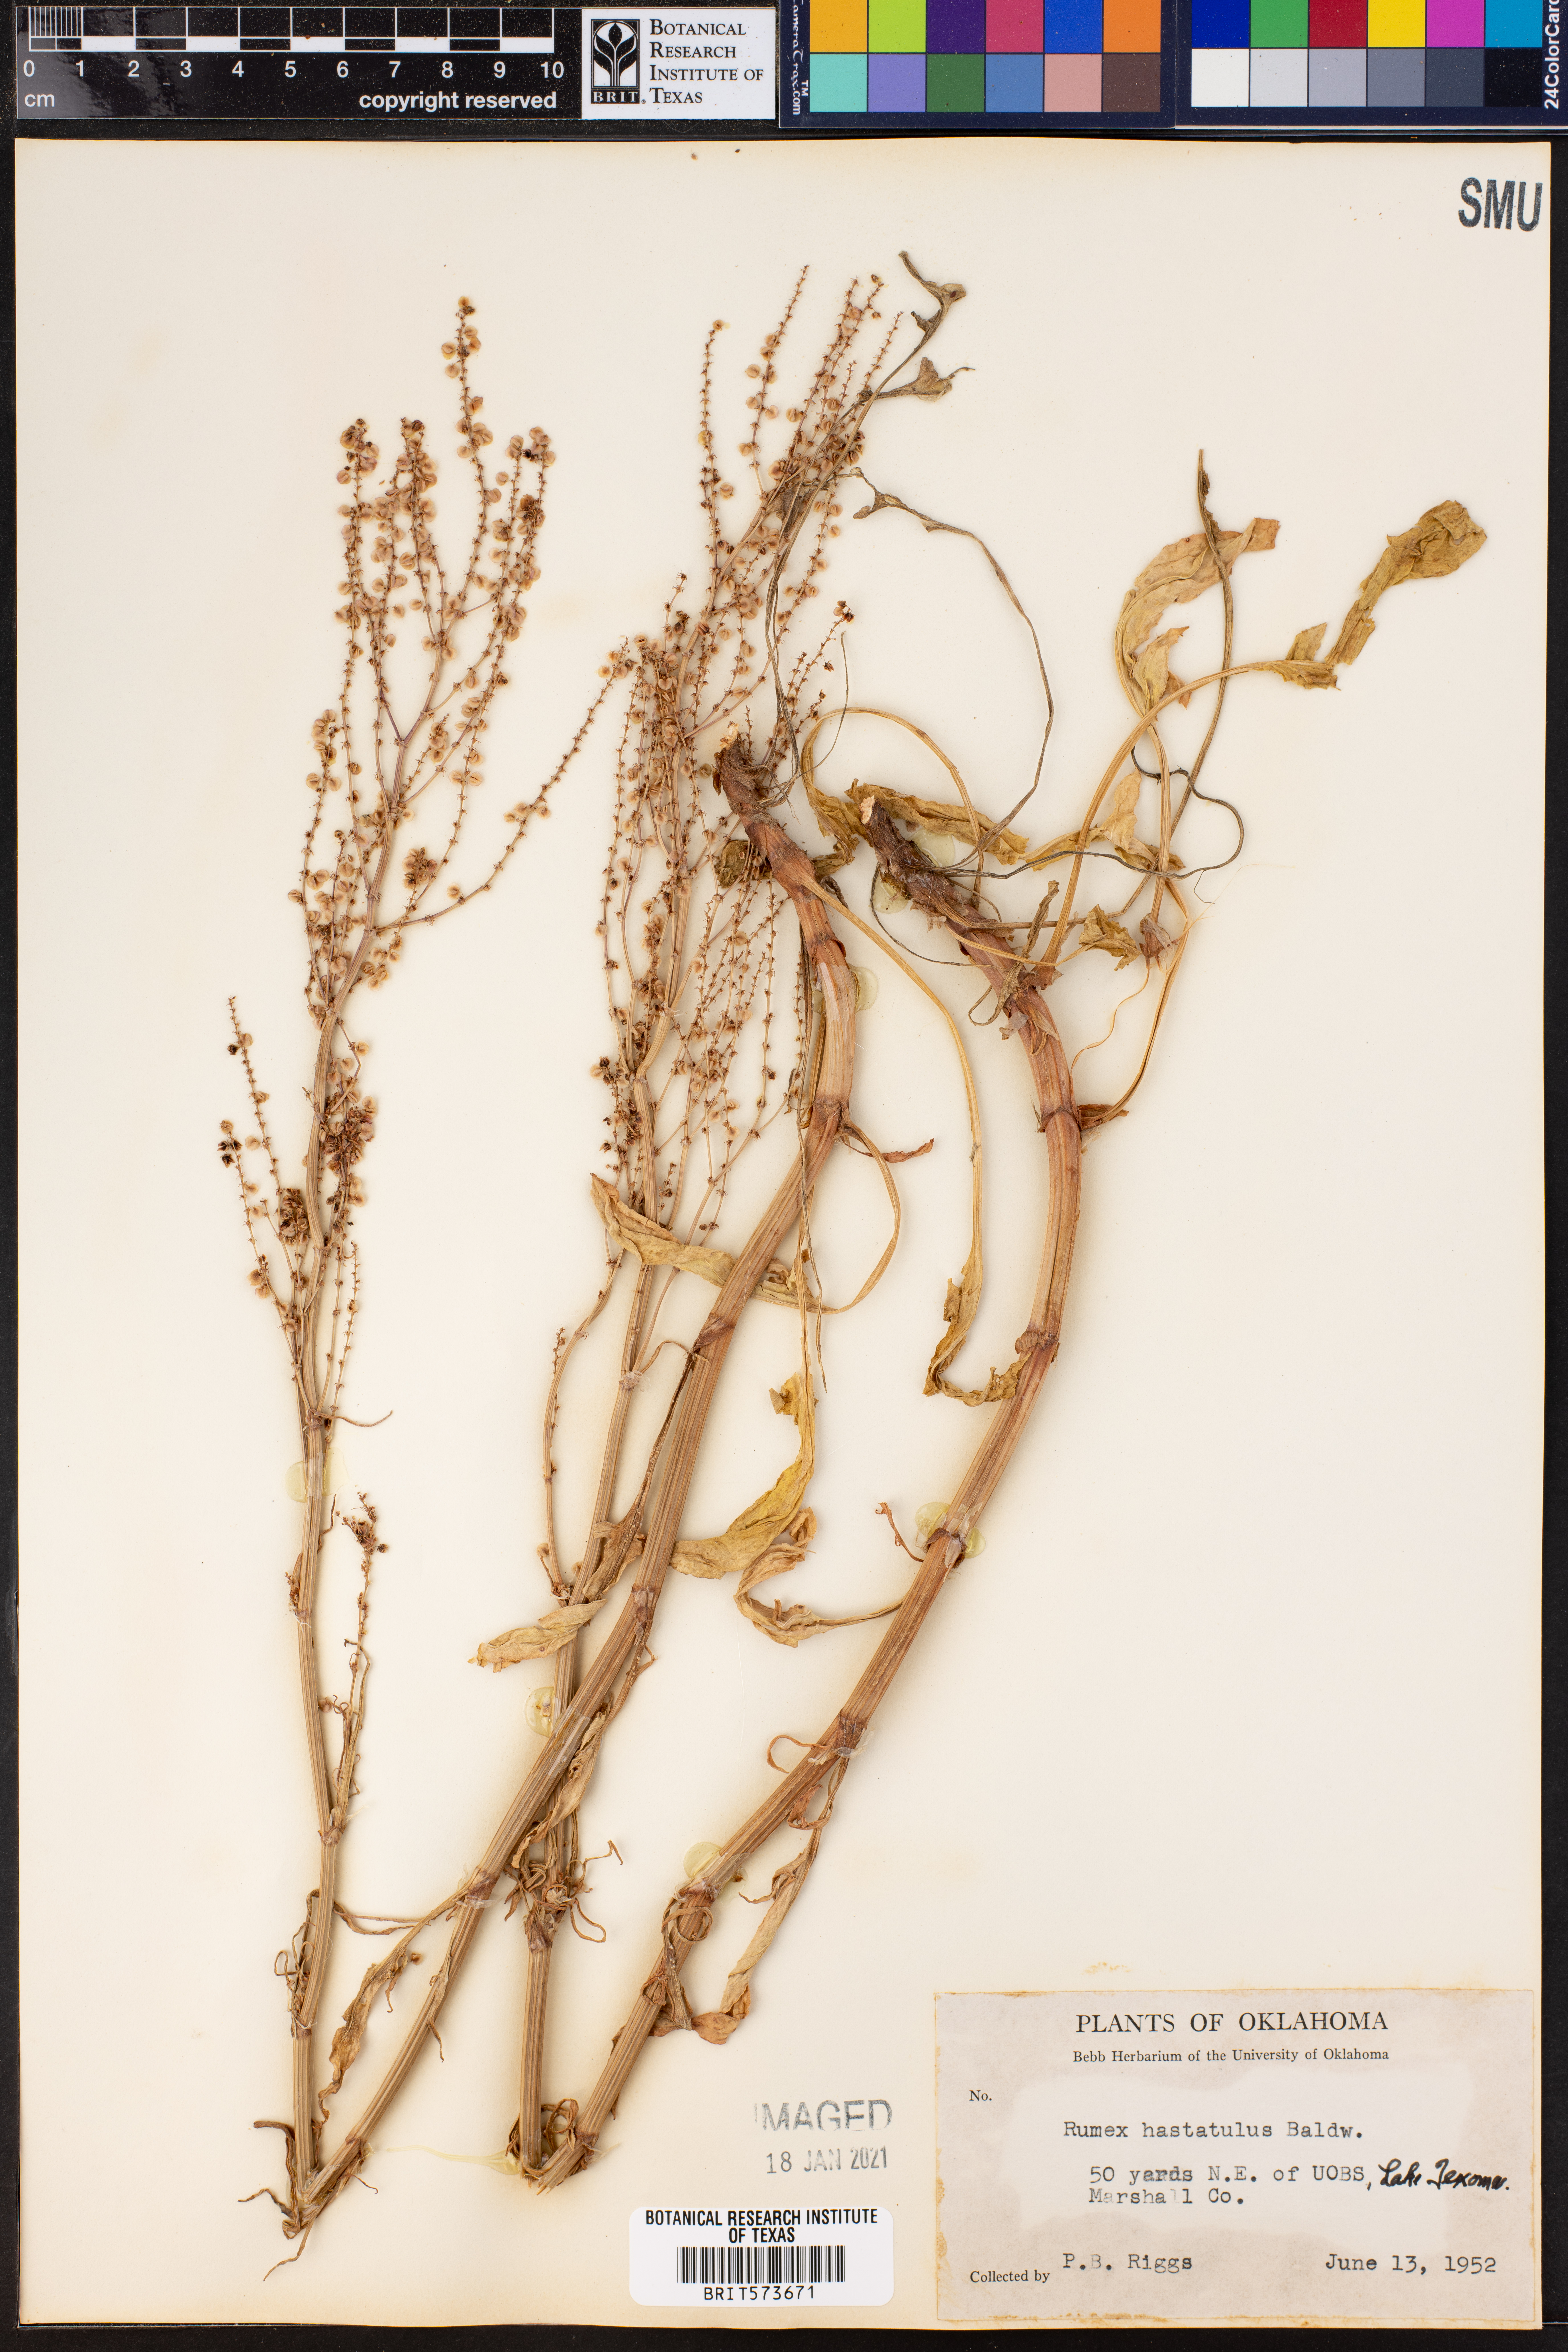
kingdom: Plantae
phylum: Tracheophyta
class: Magnoliopsida
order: Caryophyllales
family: Polygonaceae
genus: Rumex
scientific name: Rumex hastatulus
